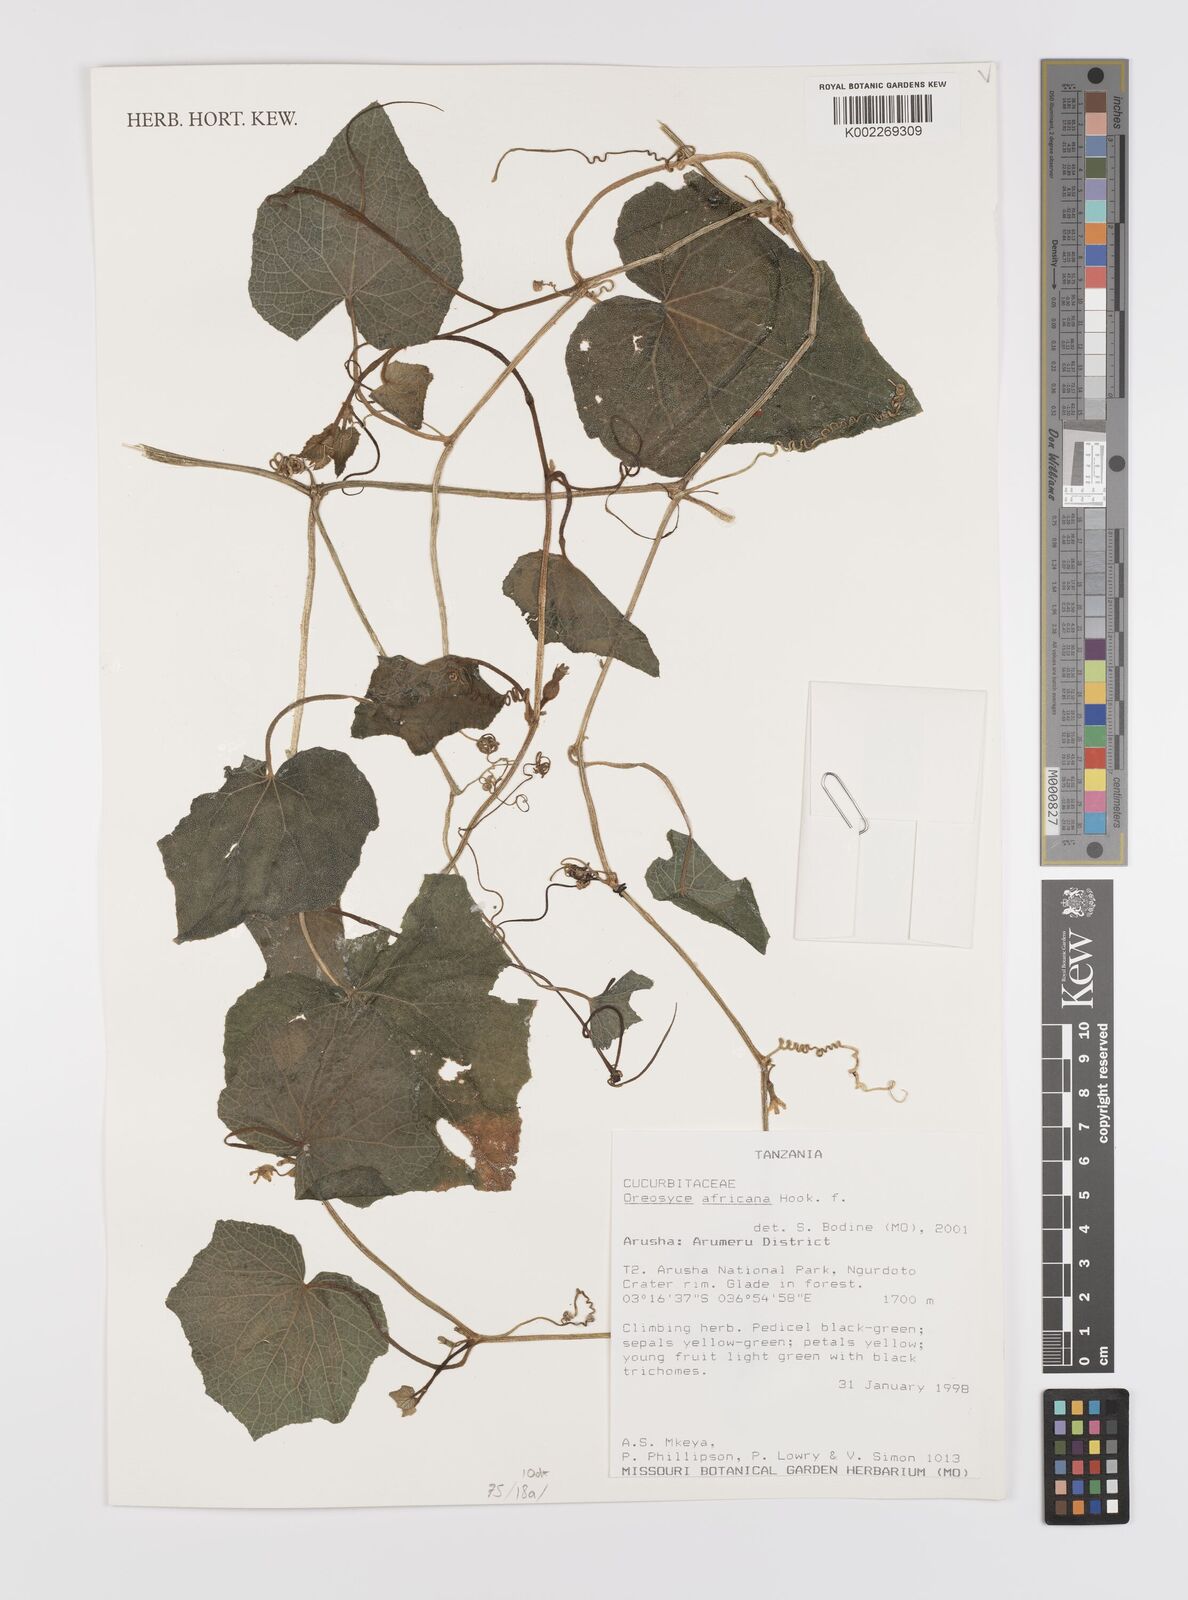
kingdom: Plantae
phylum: Tracheophyta
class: Magnoliopsida
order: Cucurbitales
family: Cucurbitaceae
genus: Cucumis
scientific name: Cucumis oreosyce
